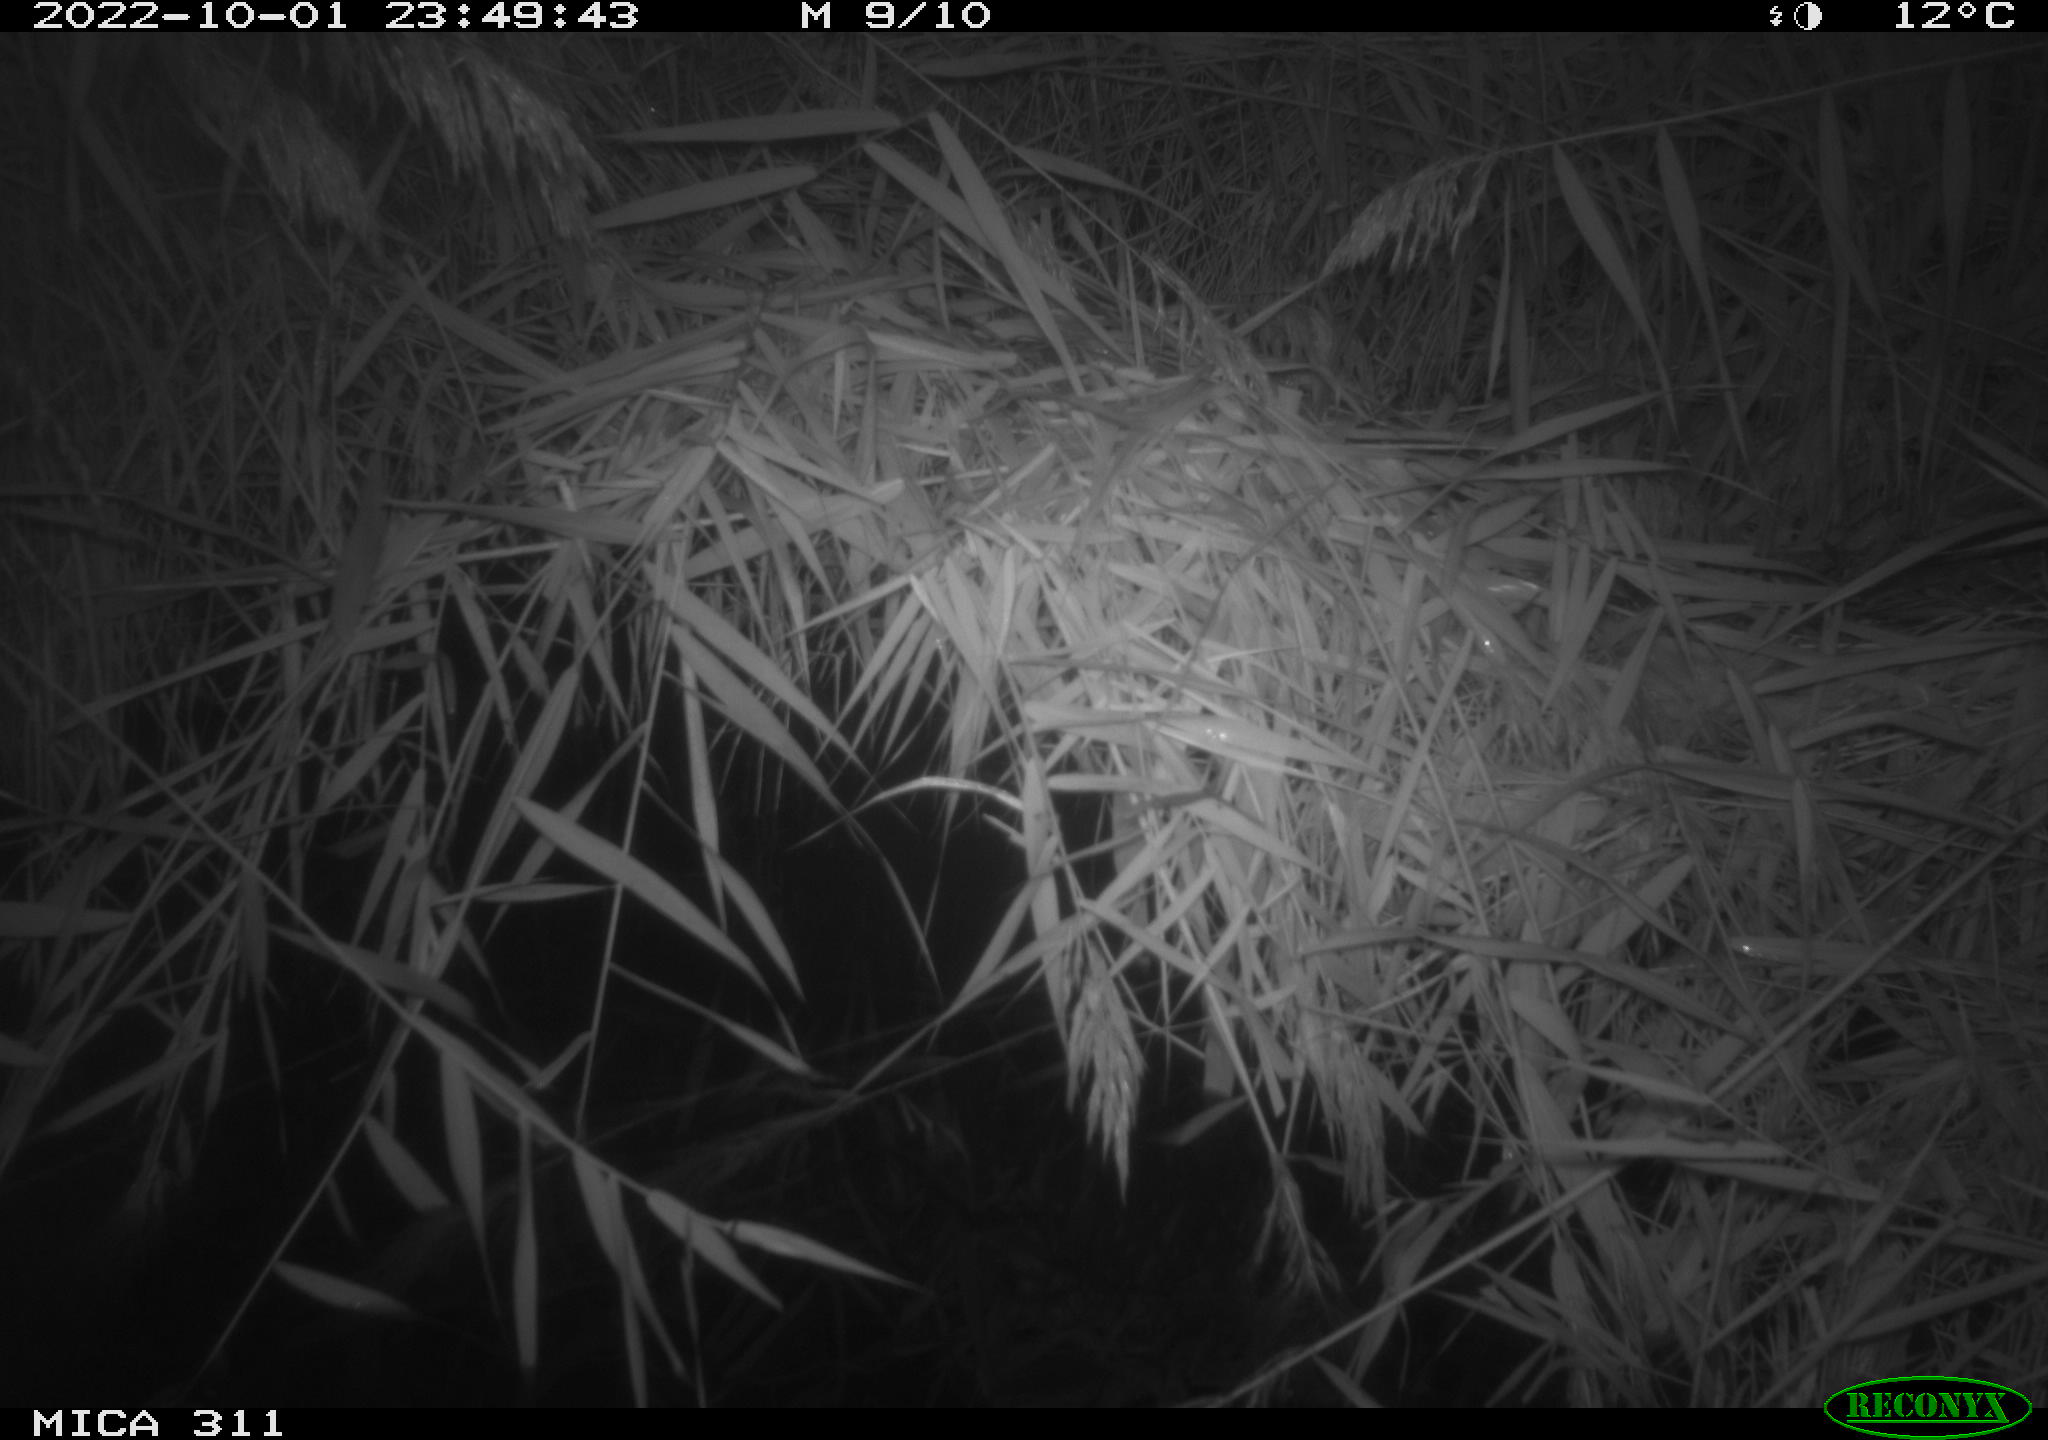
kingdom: Animalia
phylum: Chordata
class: Mammalia
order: Rodentia
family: Muridae
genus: Rattus
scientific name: Rattus norvegicus
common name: Brown rat
